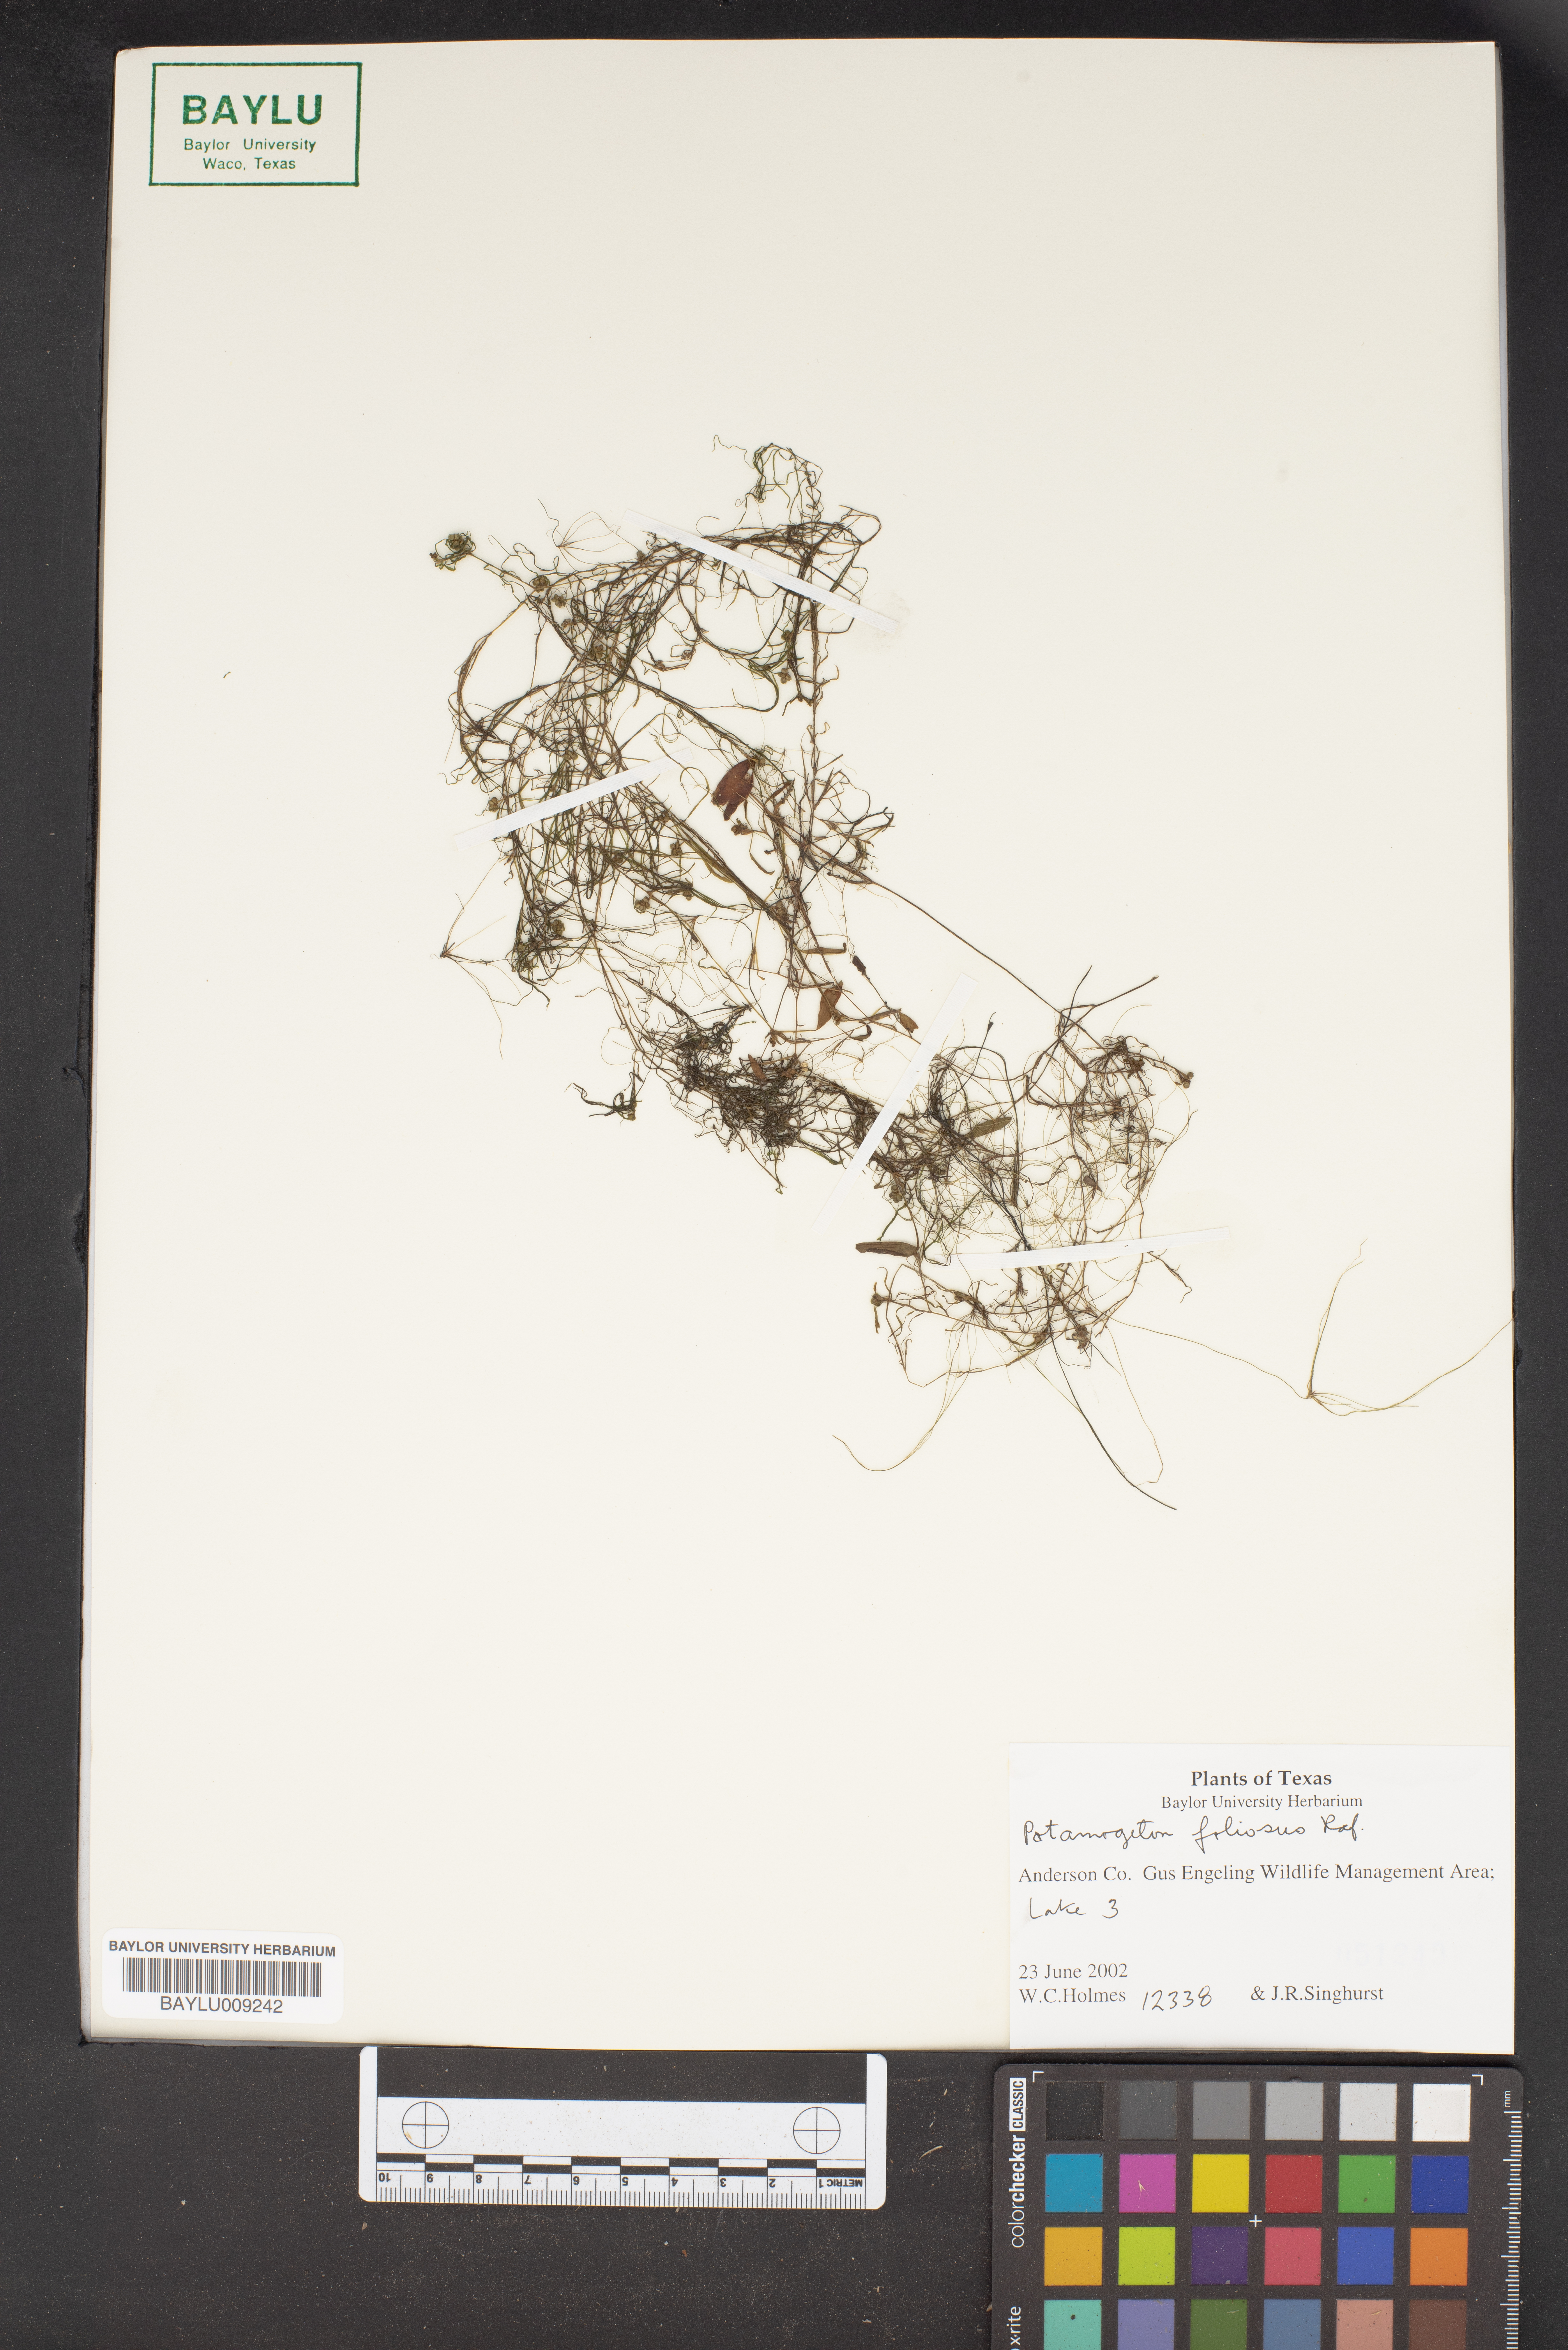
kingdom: Plantae
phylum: Tracheophyta
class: Liliopsida
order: Alismatales
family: Potamogetonaceae
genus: Potamogeton
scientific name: Potamogeton foliosus
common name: Leafy pondweed
